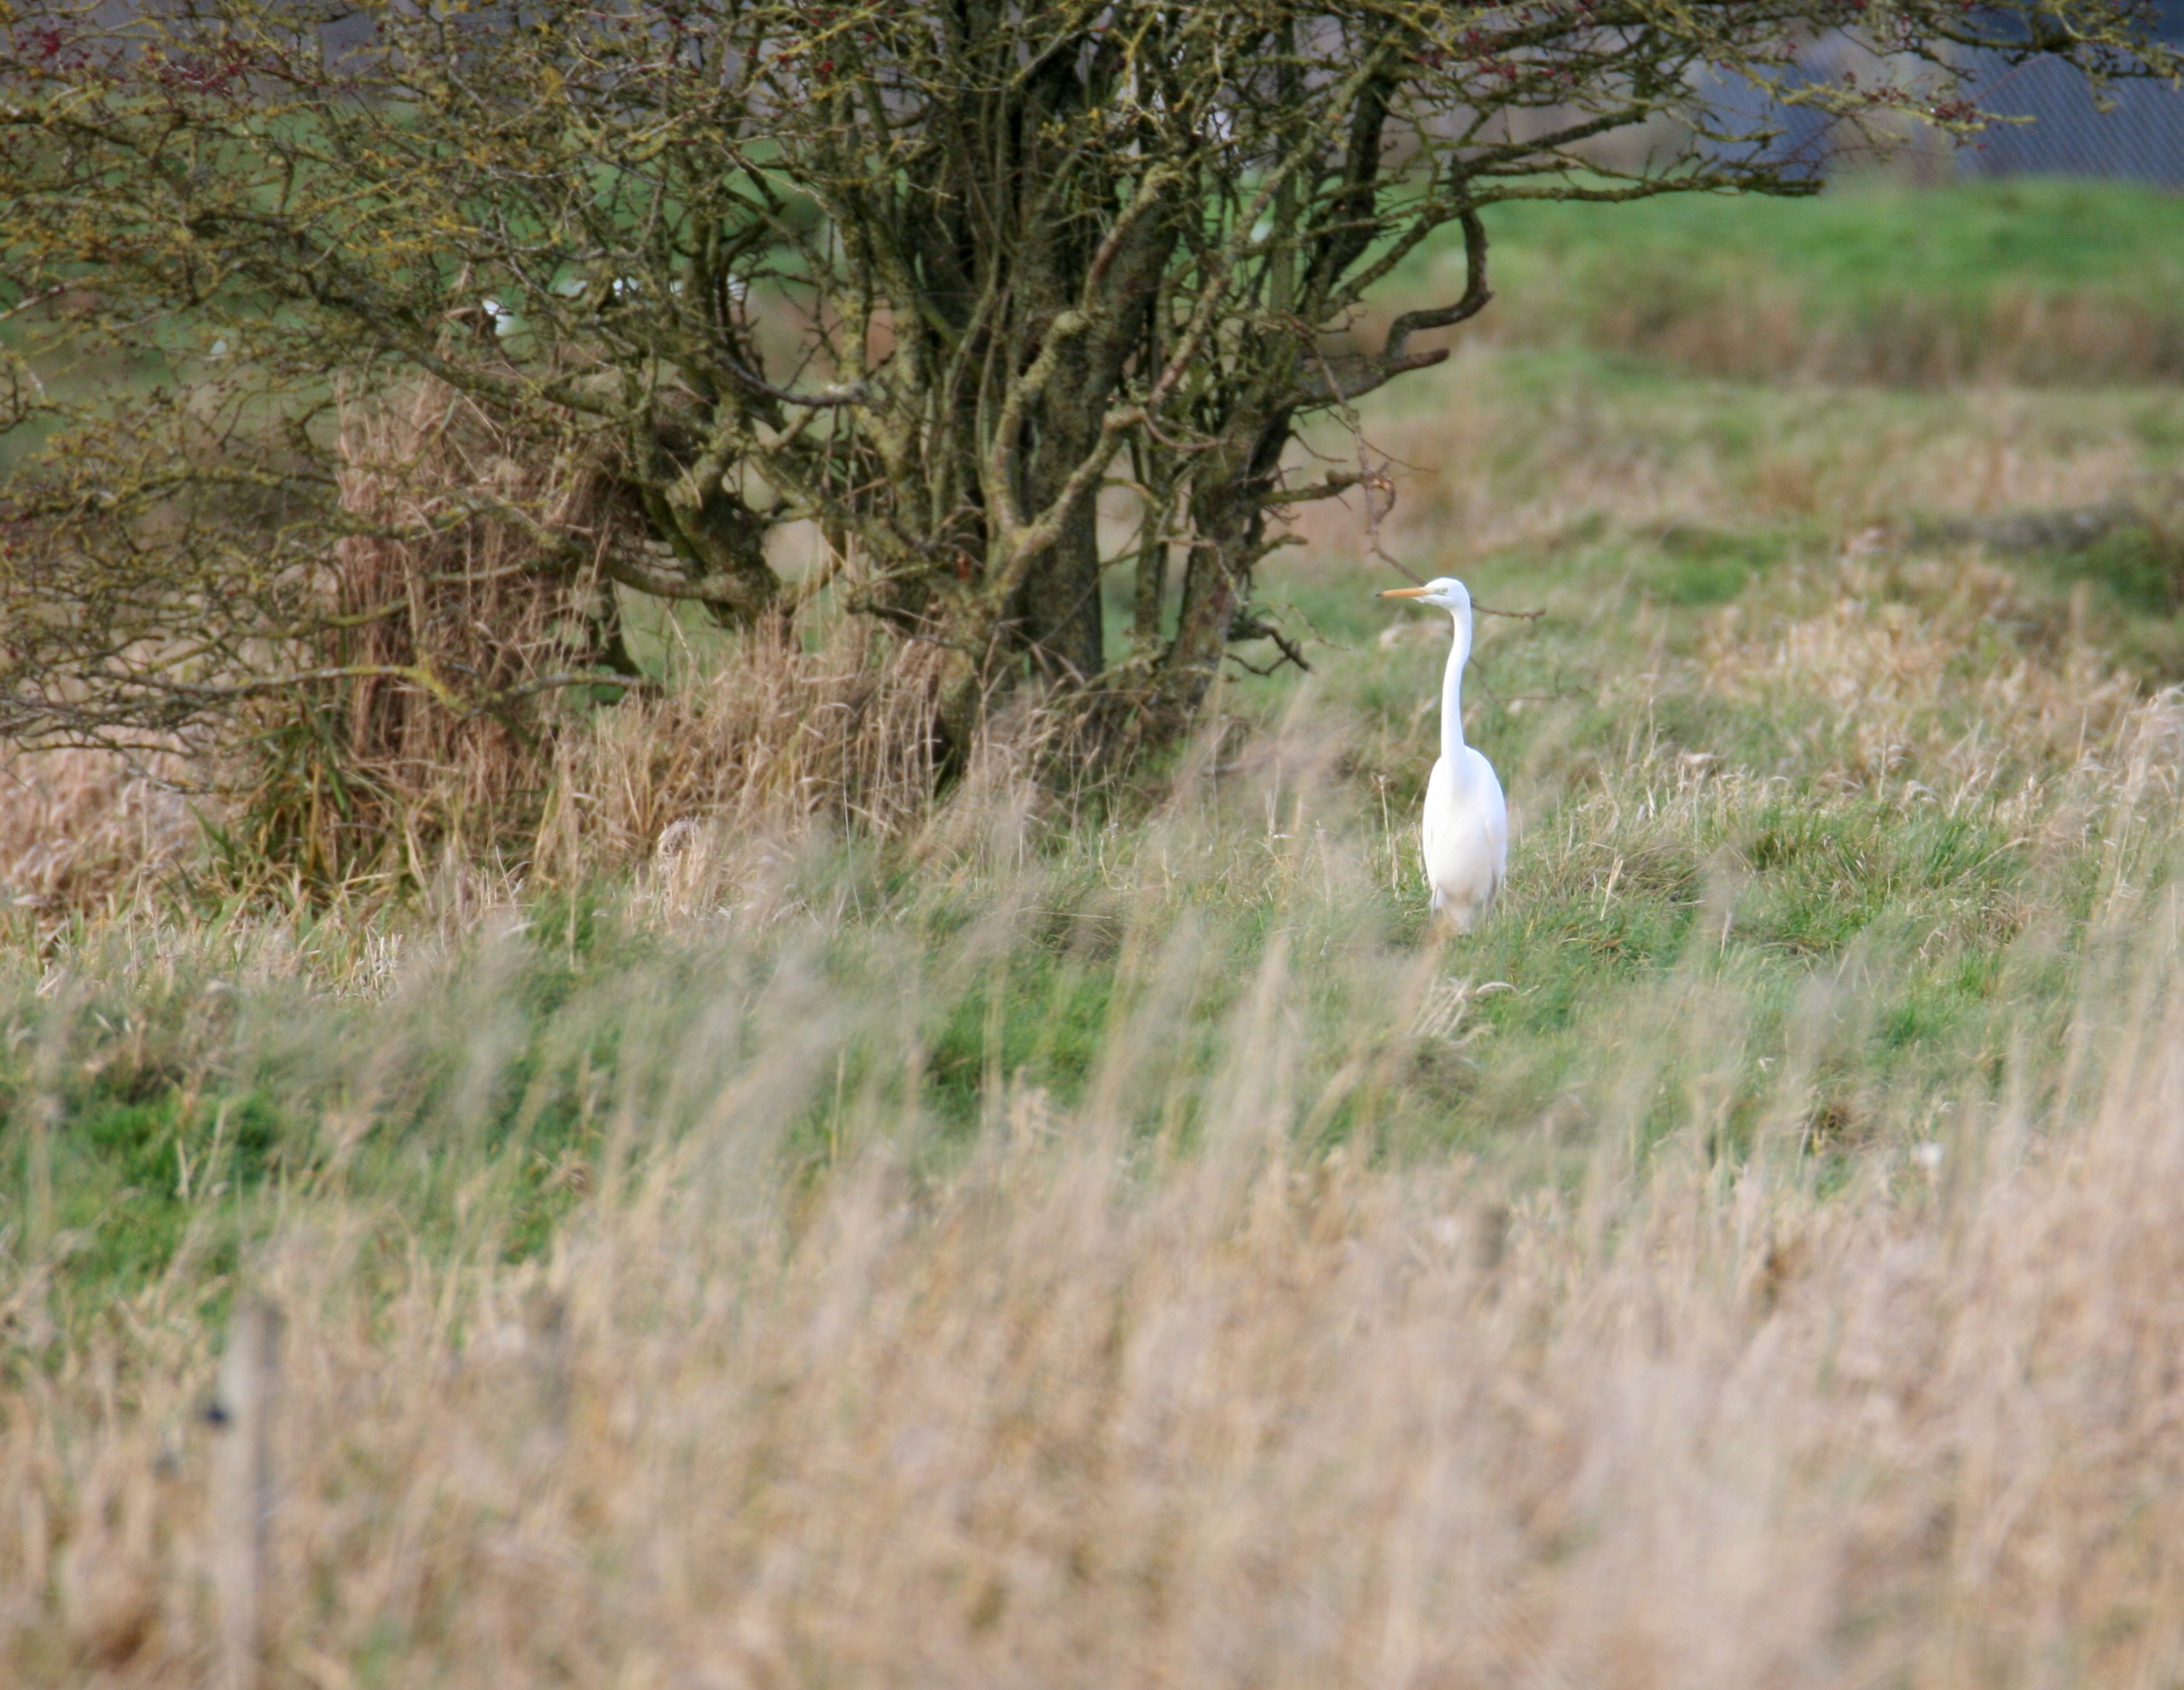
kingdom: Animalia
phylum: Chordata
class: Aves
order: Pelecaniformes
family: Ardeidae
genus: Ardea
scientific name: Ardea alba
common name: Sølvhejre
